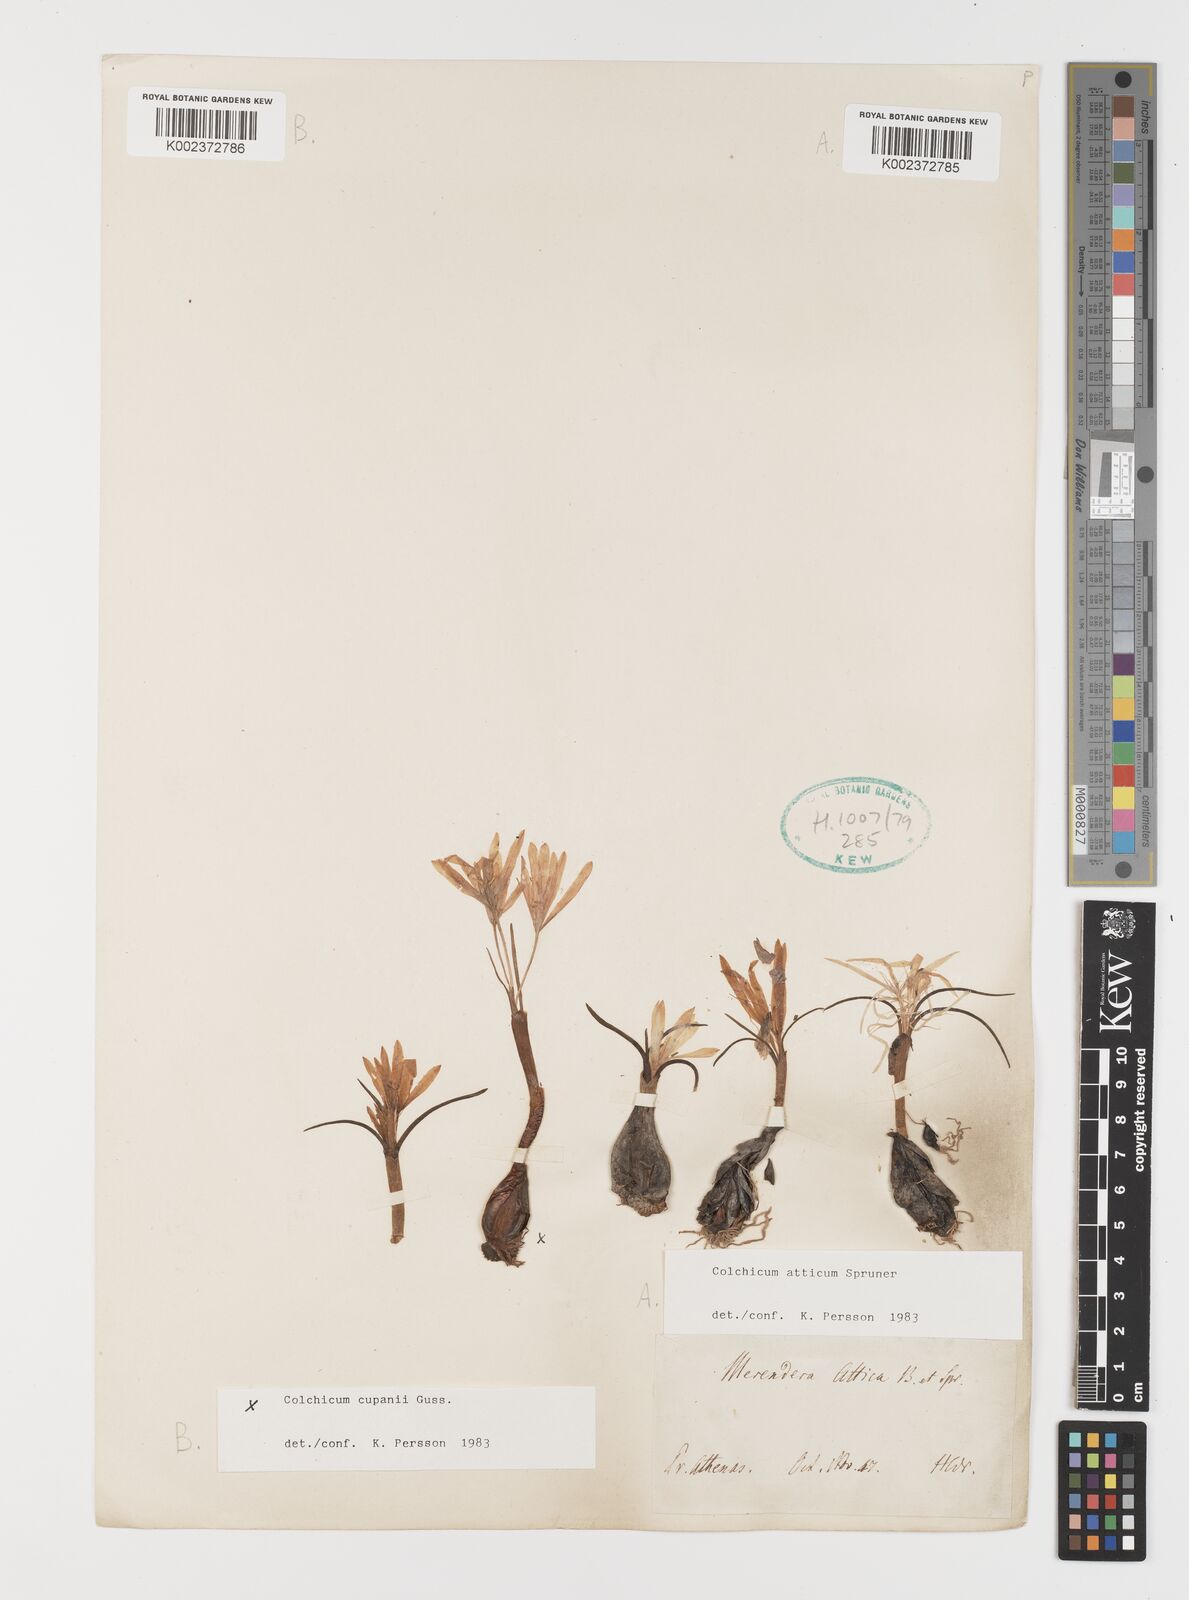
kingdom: Plantae
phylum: Tracheophyta
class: Liliopsida
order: Liliales
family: Colchicaceae
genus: Colchicum
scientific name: Colchicum atticum
